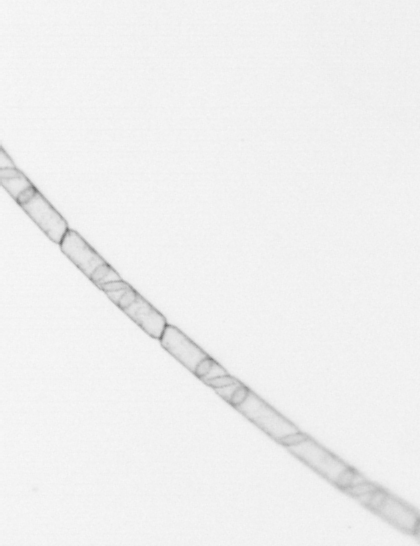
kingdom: Chromista
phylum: Ochrophyta
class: Bacillariophyceae
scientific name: Bacillariophyceae
